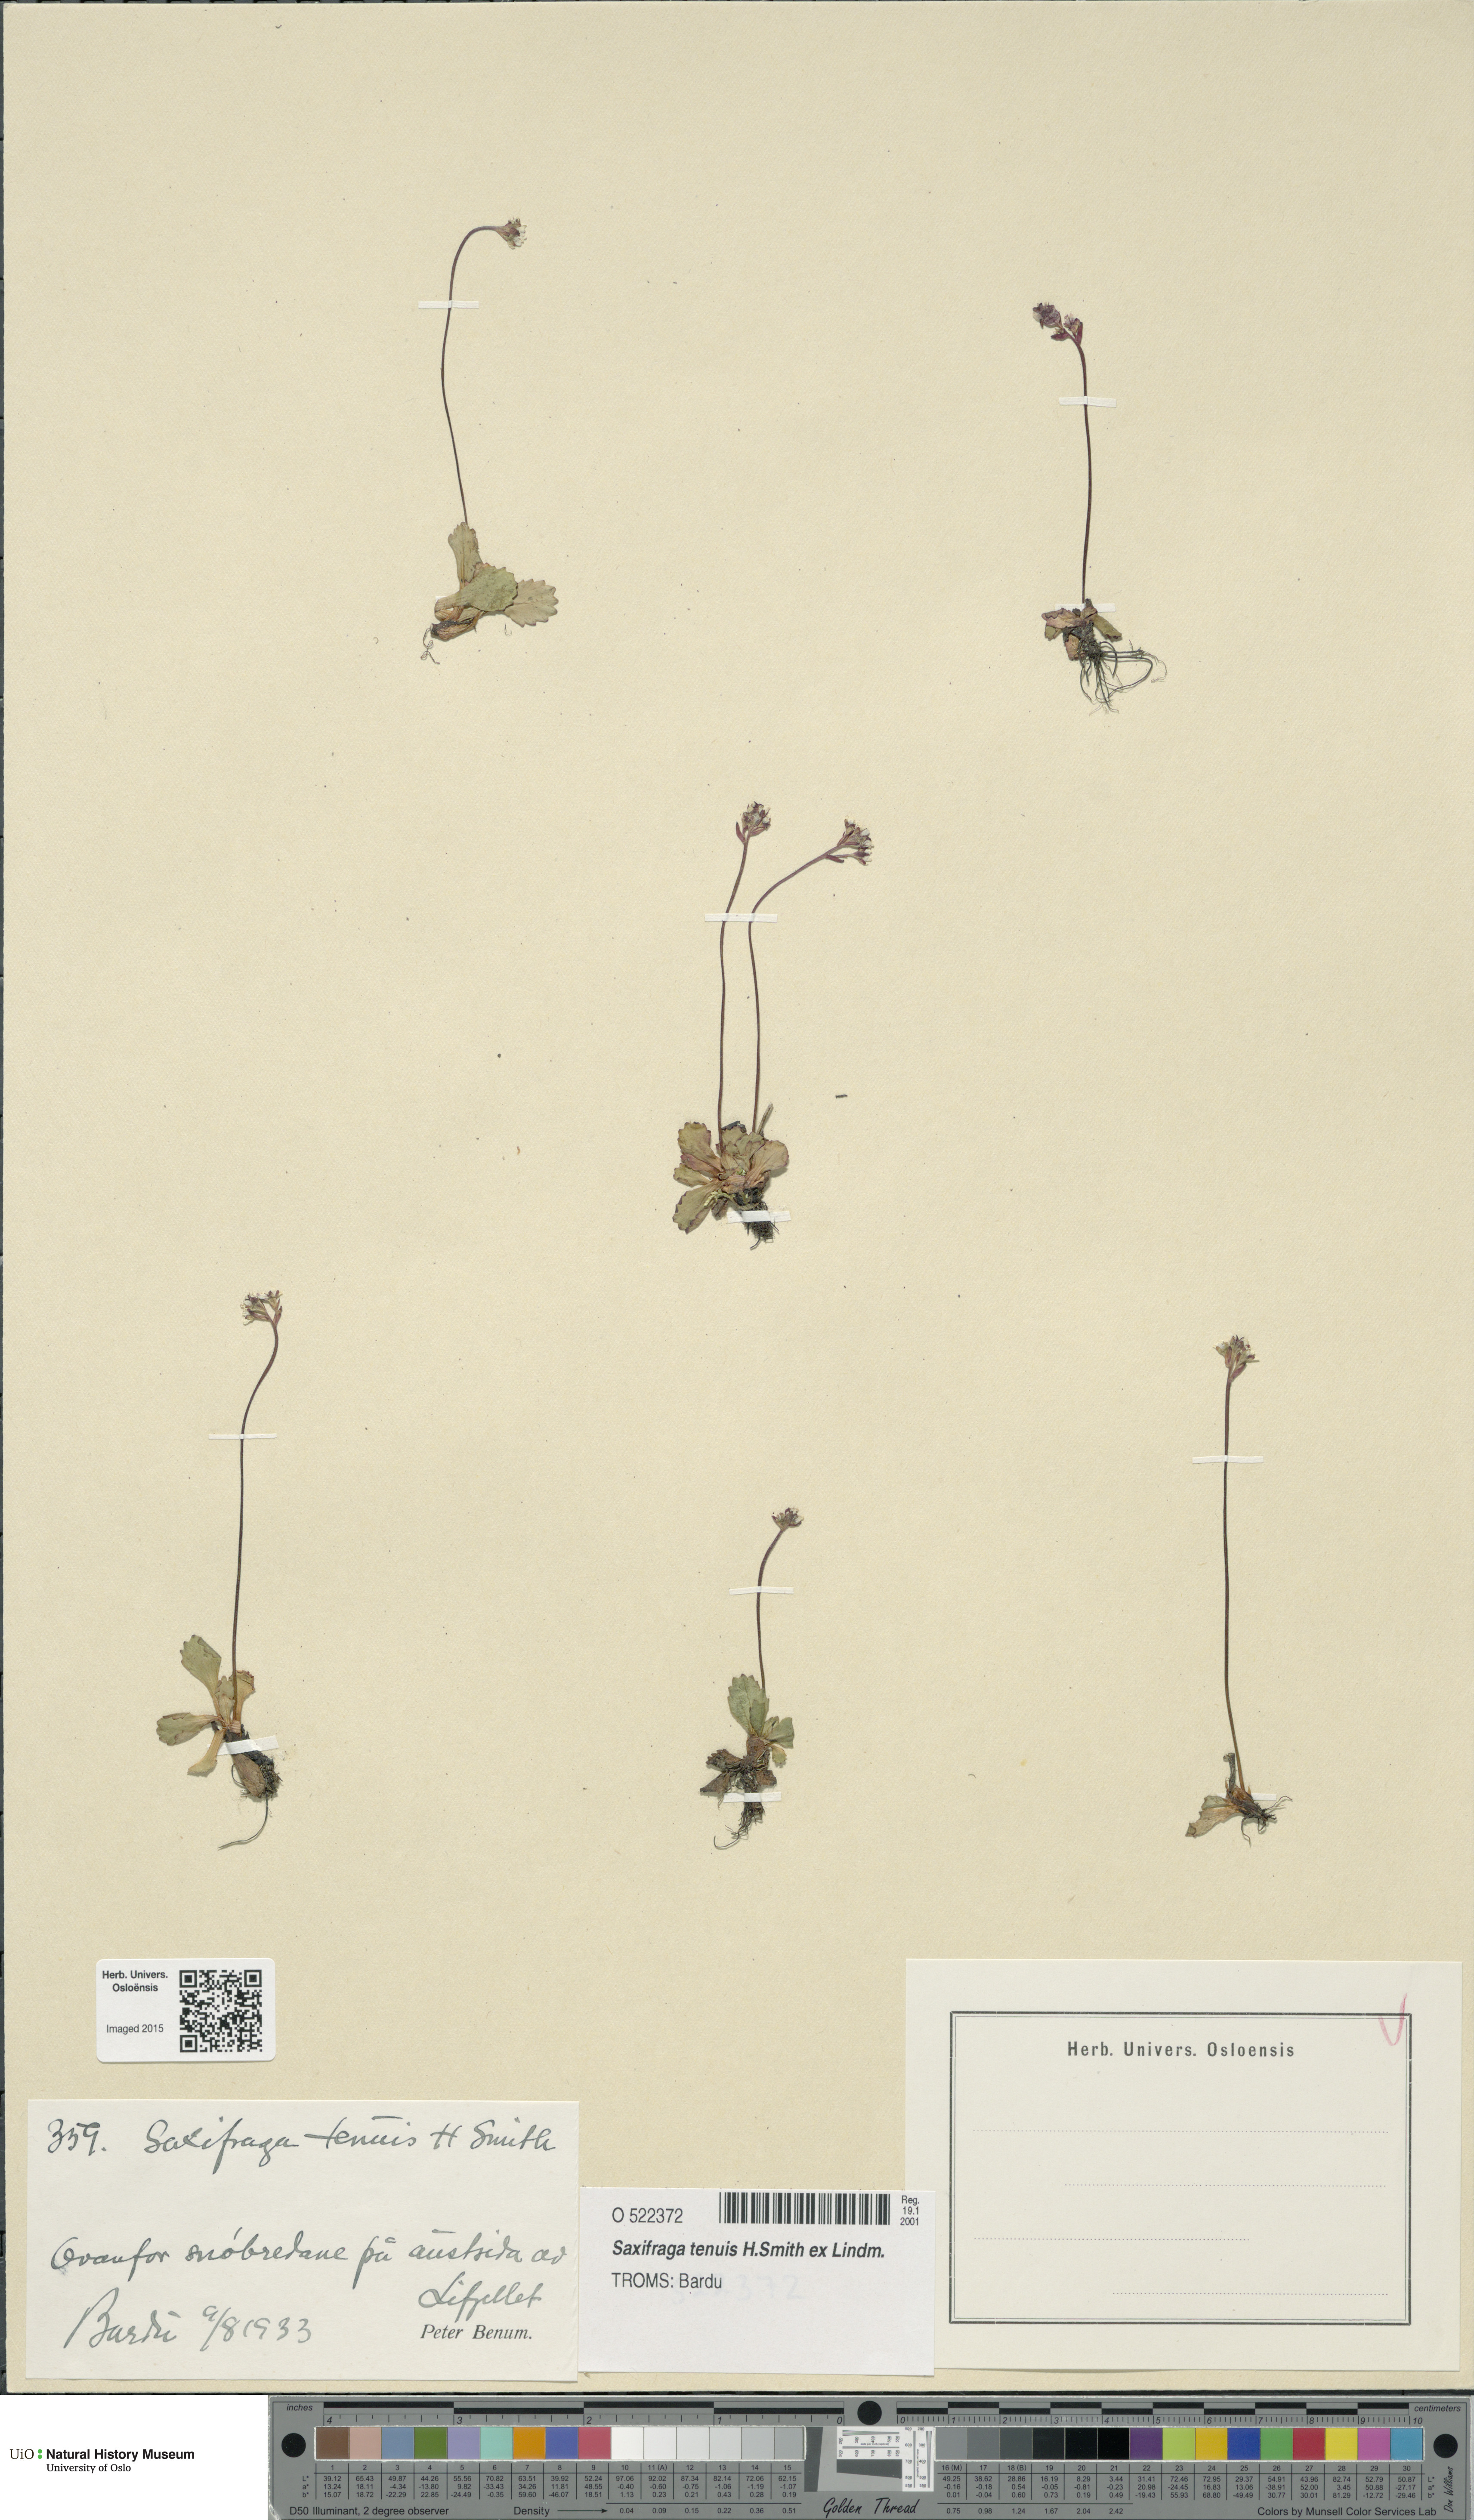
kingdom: Plantae
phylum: Tracheophyta
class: Magnoliopsida
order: Saxifragales
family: Saxifragaceae
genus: Micranthes
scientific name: Micranthes tenuis
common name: Ottertail pass saxifrage
